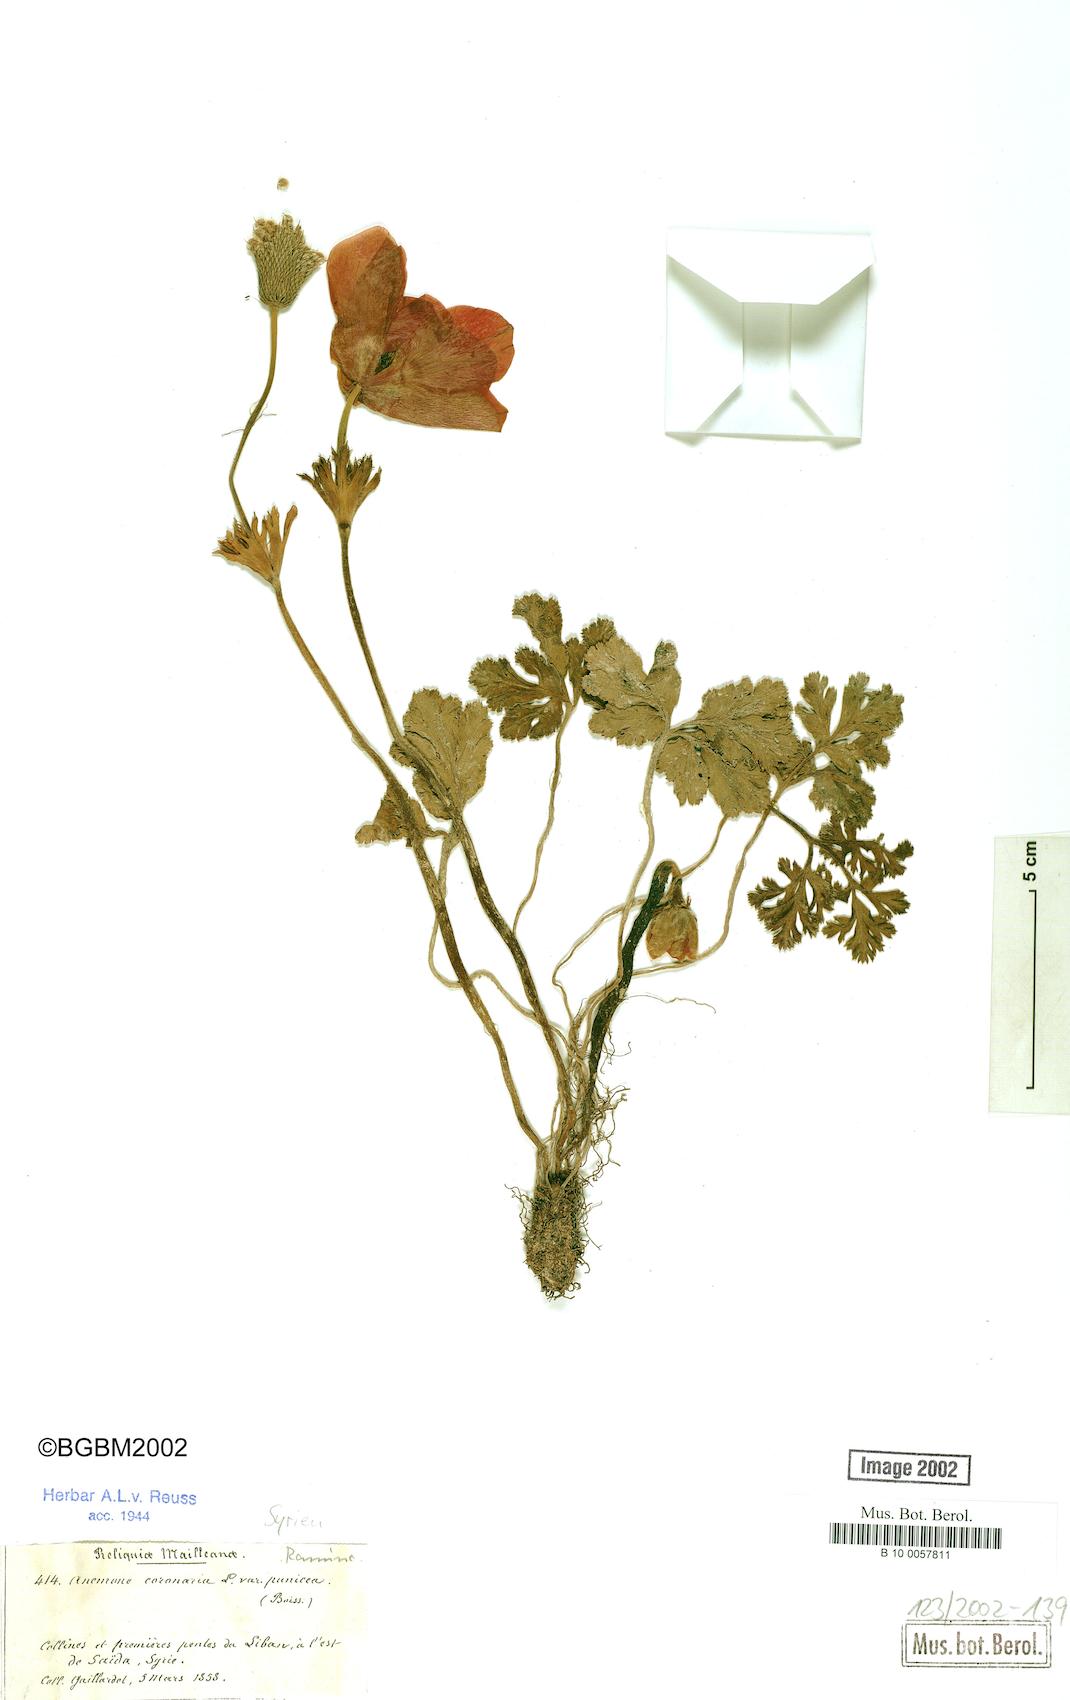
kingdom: Plantae
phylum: Tracheophyta
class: Magnoliopsida
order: Ranunculales
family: Ranunculaceae
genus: Anemone
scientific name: Anemone coronaria
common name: Poppy anemone
